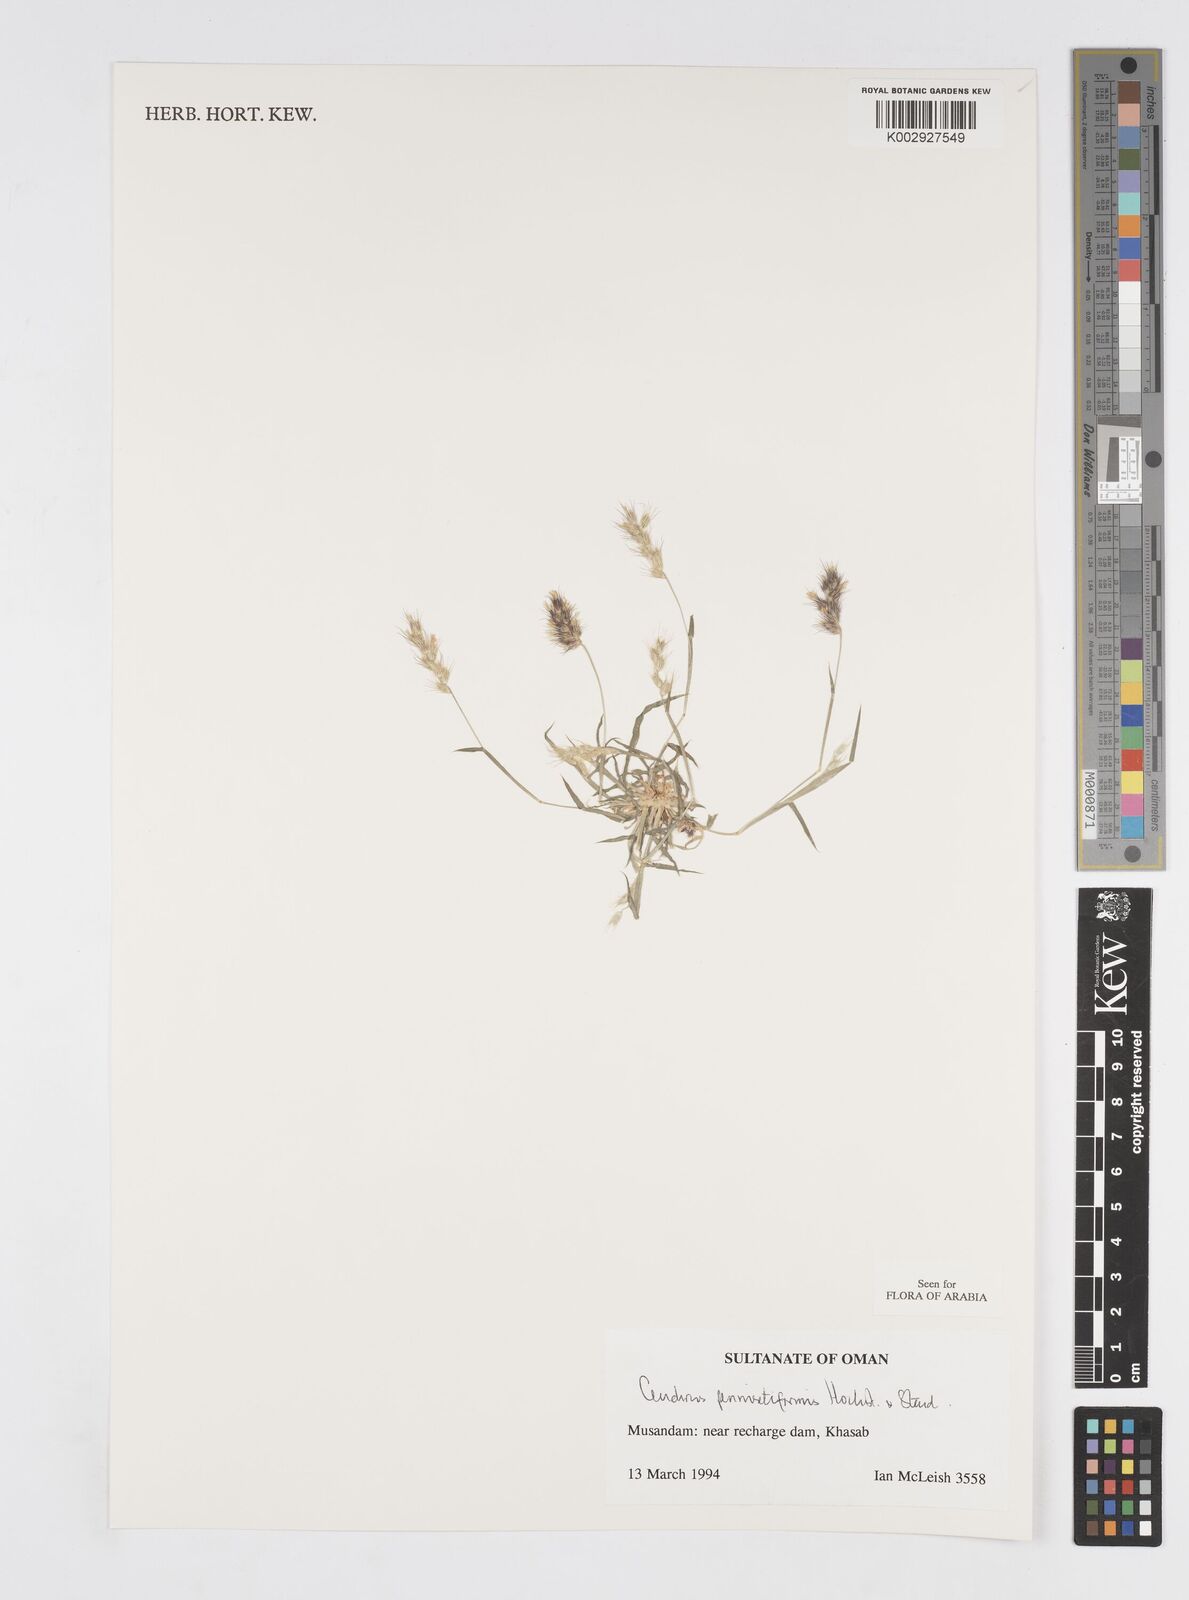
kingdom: Plantae
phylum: Tracheophyta
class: Liliopsida
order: Poales
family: Poaceae
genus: Cenchrus
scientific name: Cenchrus pennisetiformis
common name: Cloncurry
